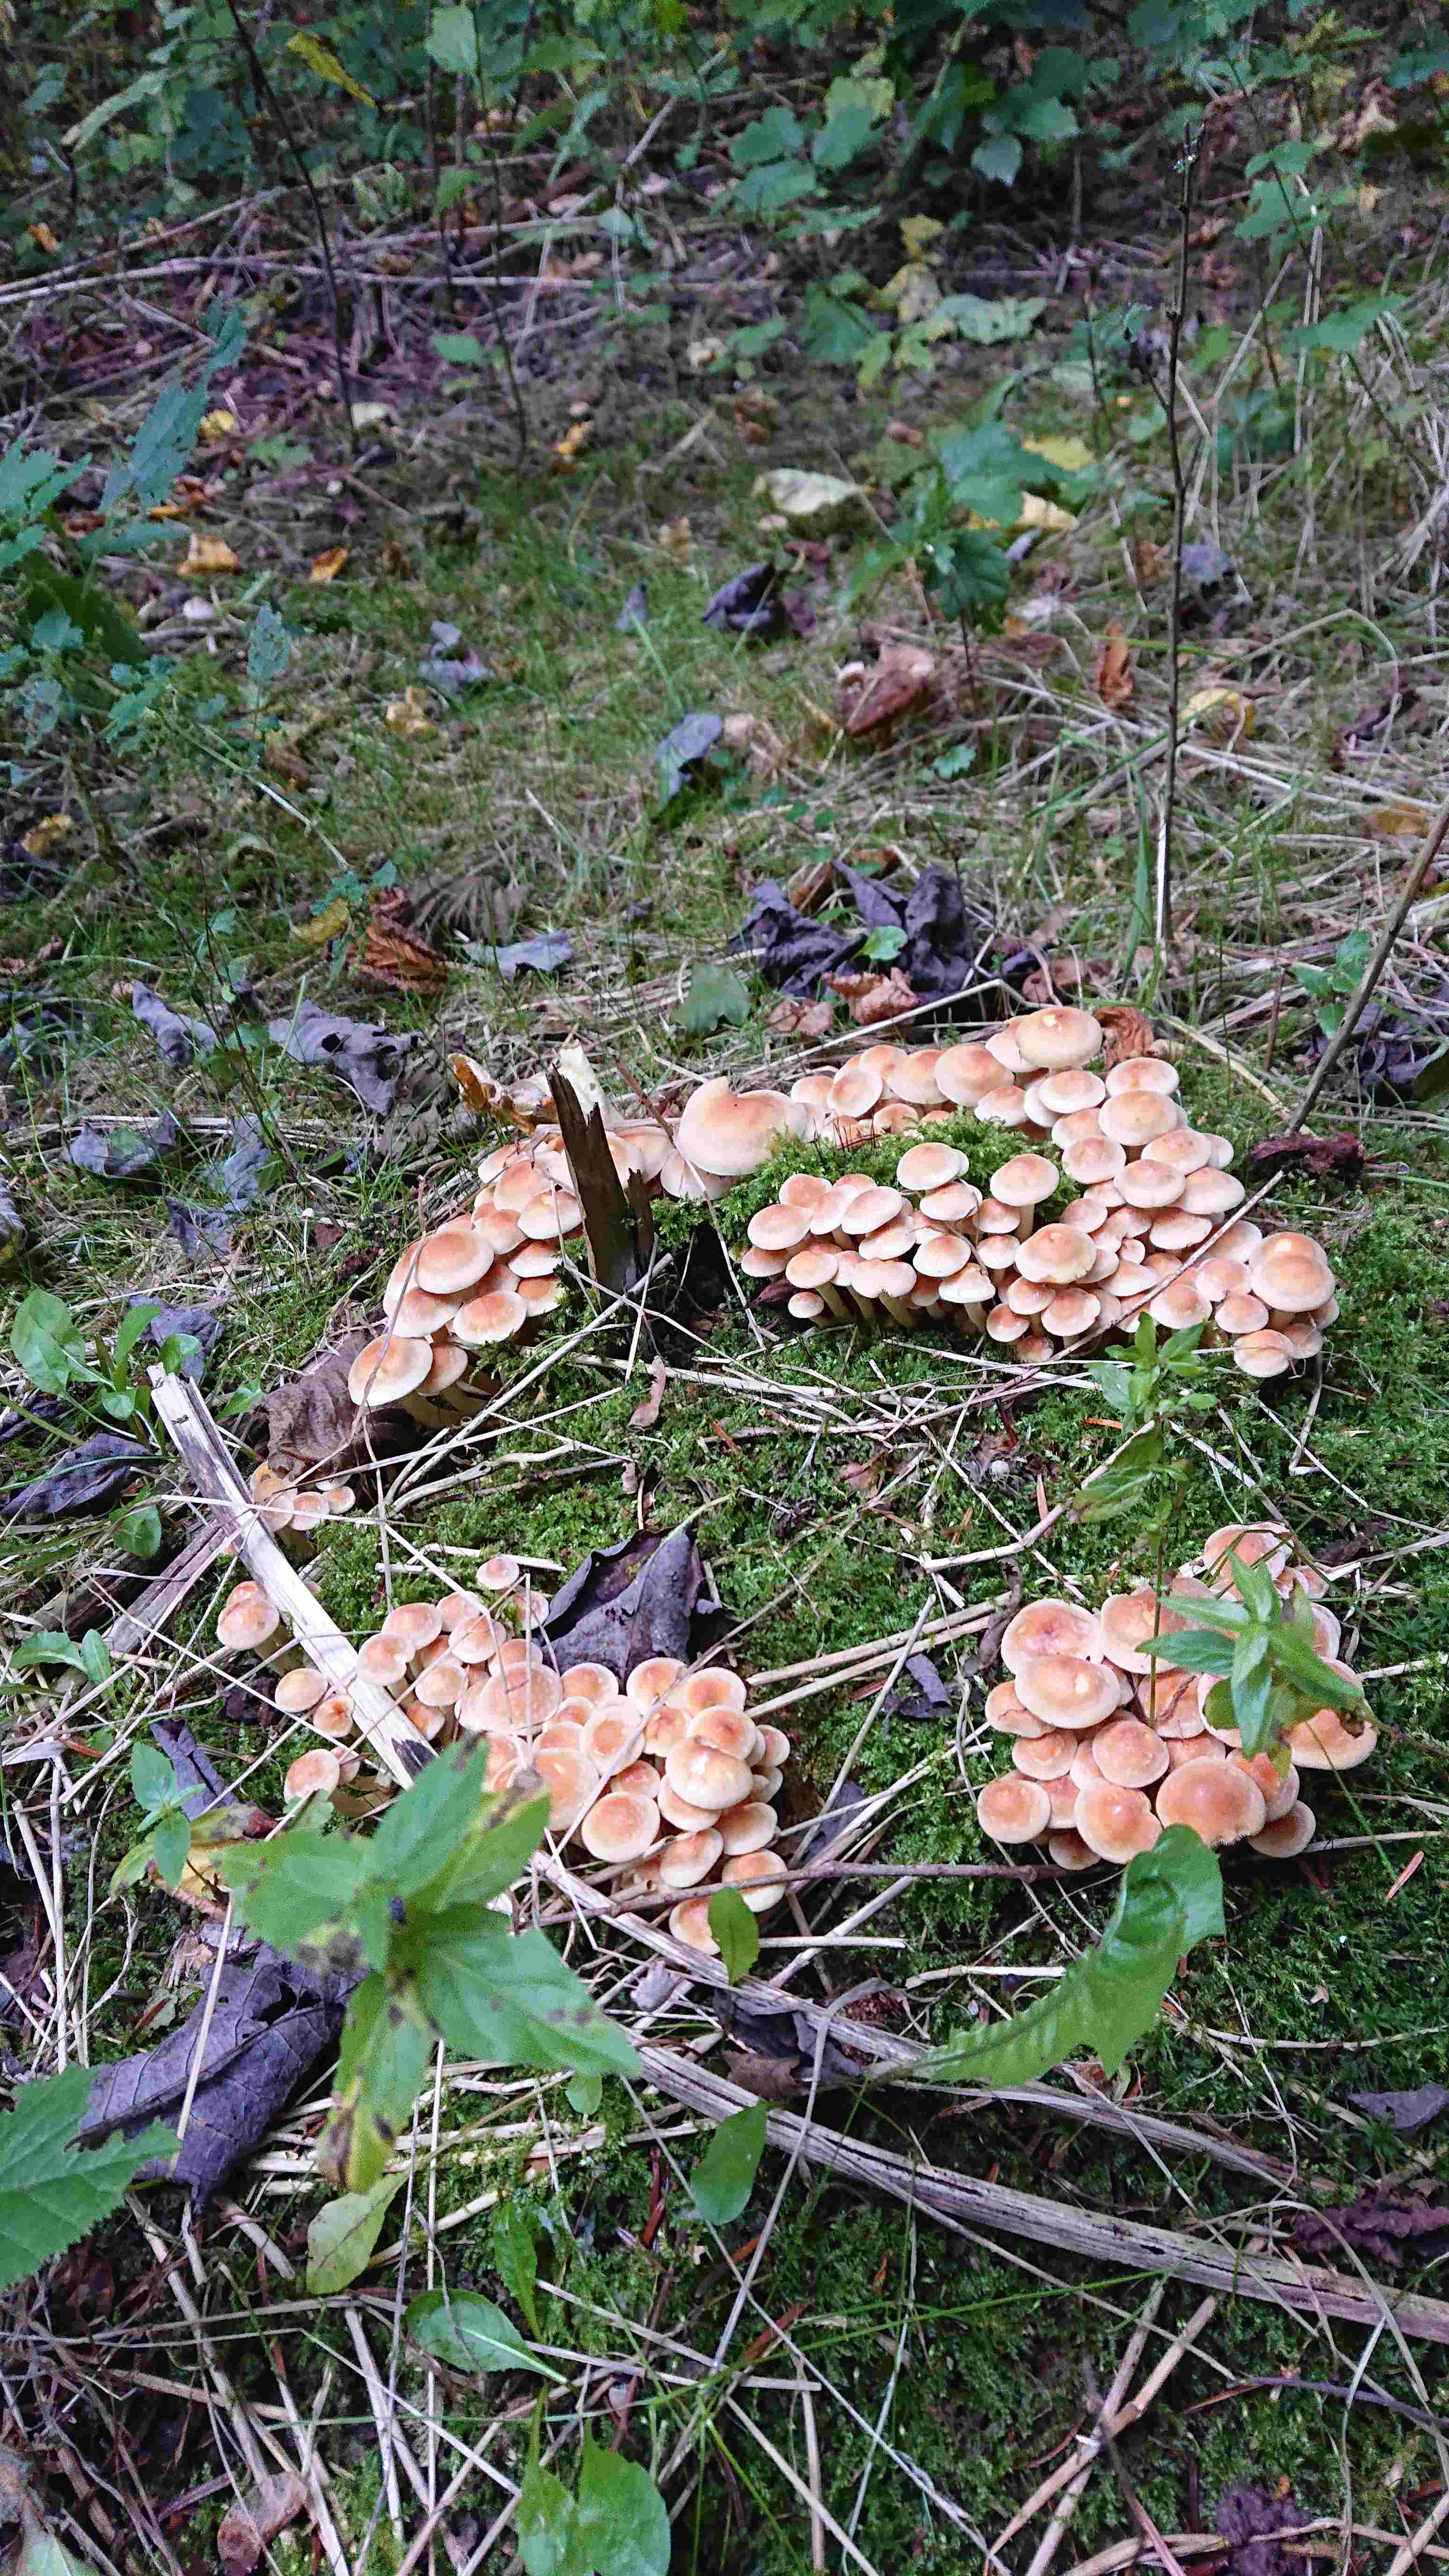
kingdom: Fungi
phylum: Basidiomycota
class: Agaricomycetes
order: Agaricales
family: Strophariaceae
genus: Hypholoma
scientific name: Hypholoma fasciculare
